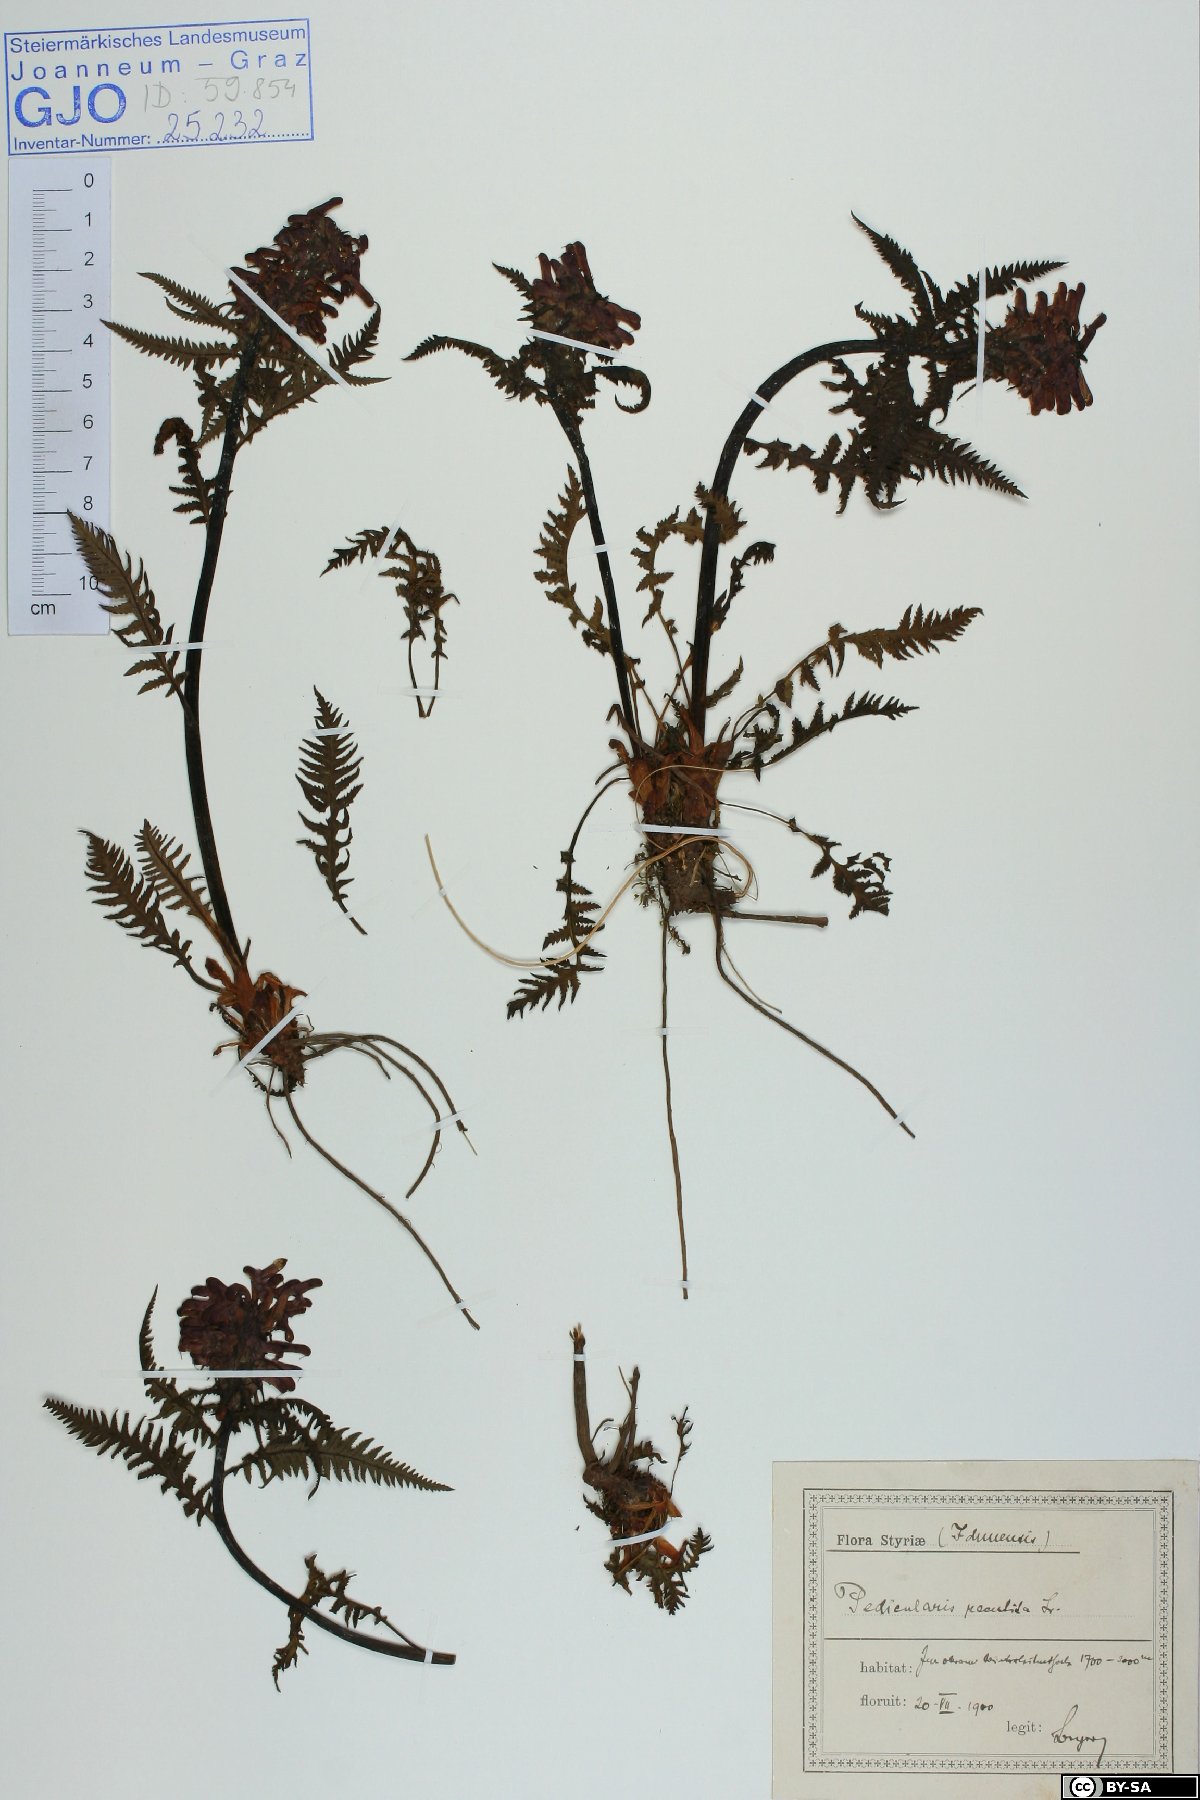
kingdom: Plantae
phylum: Tracheophyta
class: Magnoliopsida
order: Lamiales
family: Orobanchaceae
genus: Pedicularis
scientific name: Pedicularis recutita
